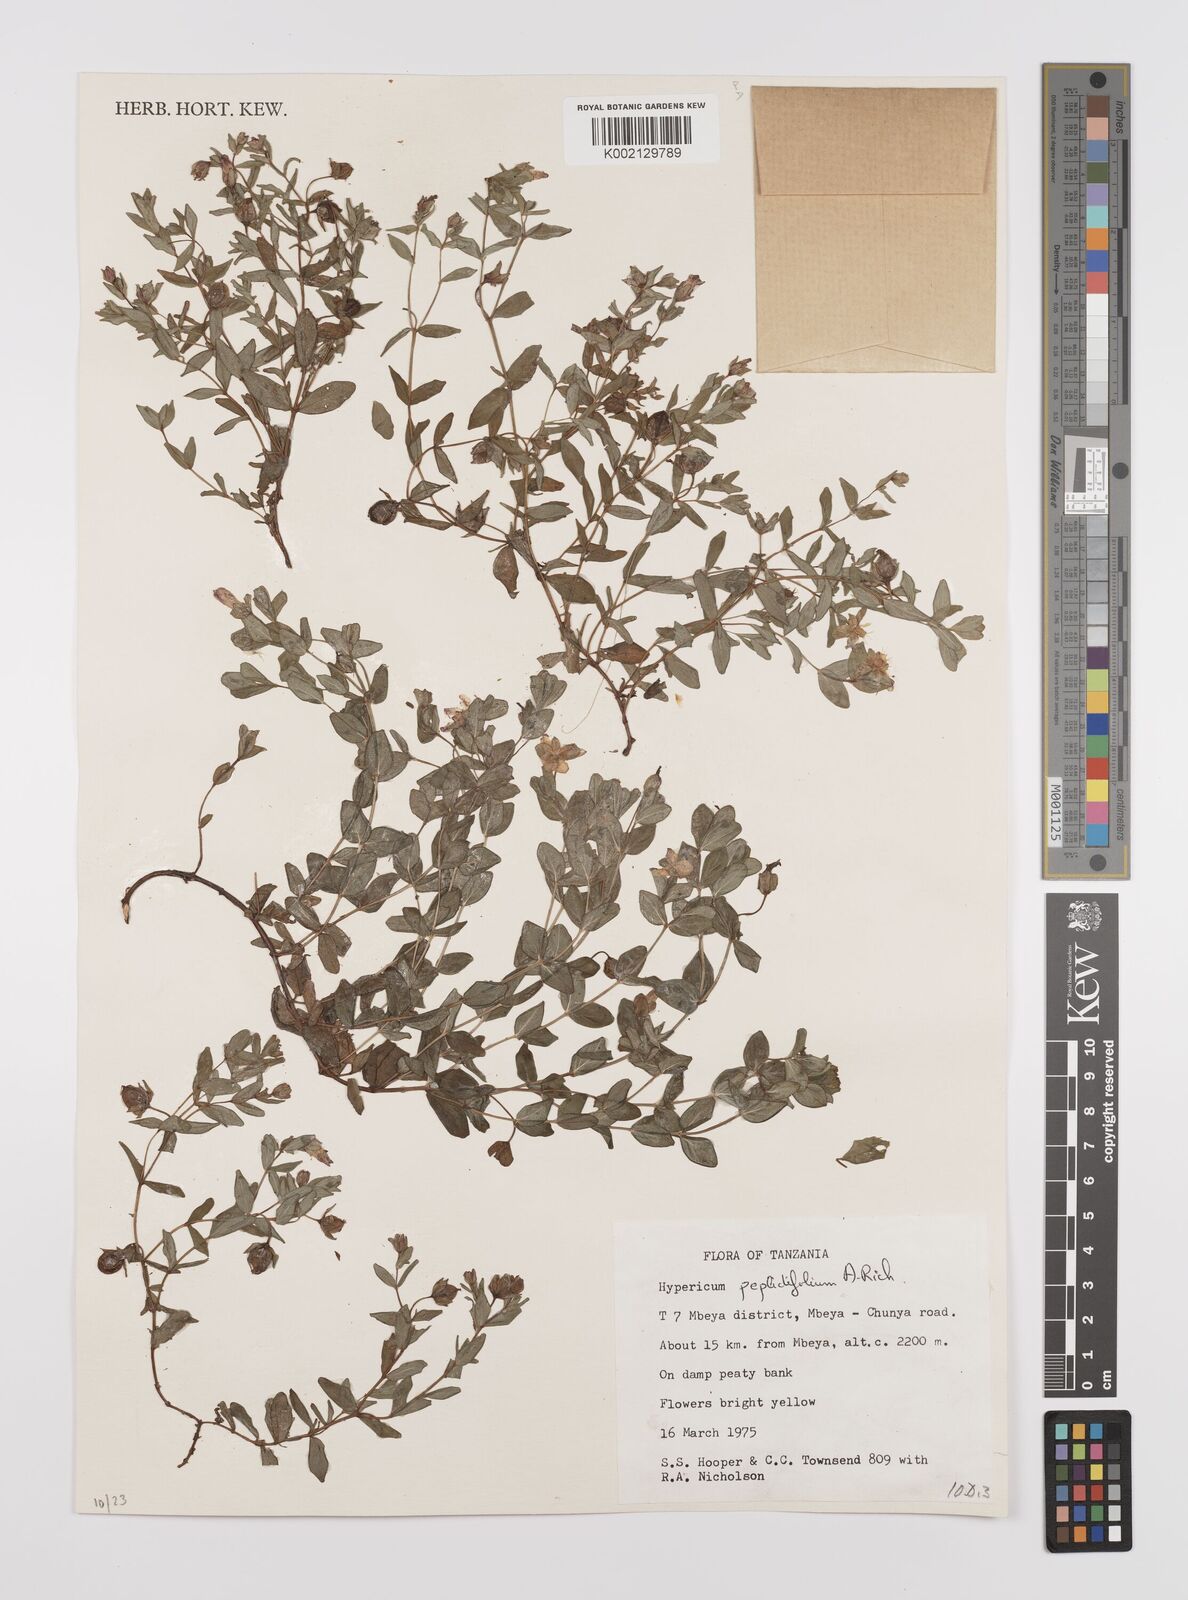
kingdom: Plantae
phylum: Tracheophyta
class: Magnoliopsida
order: Malpighiales
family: Hypericaceae
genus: Hypericum
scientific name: Hypericum peplidifolium
